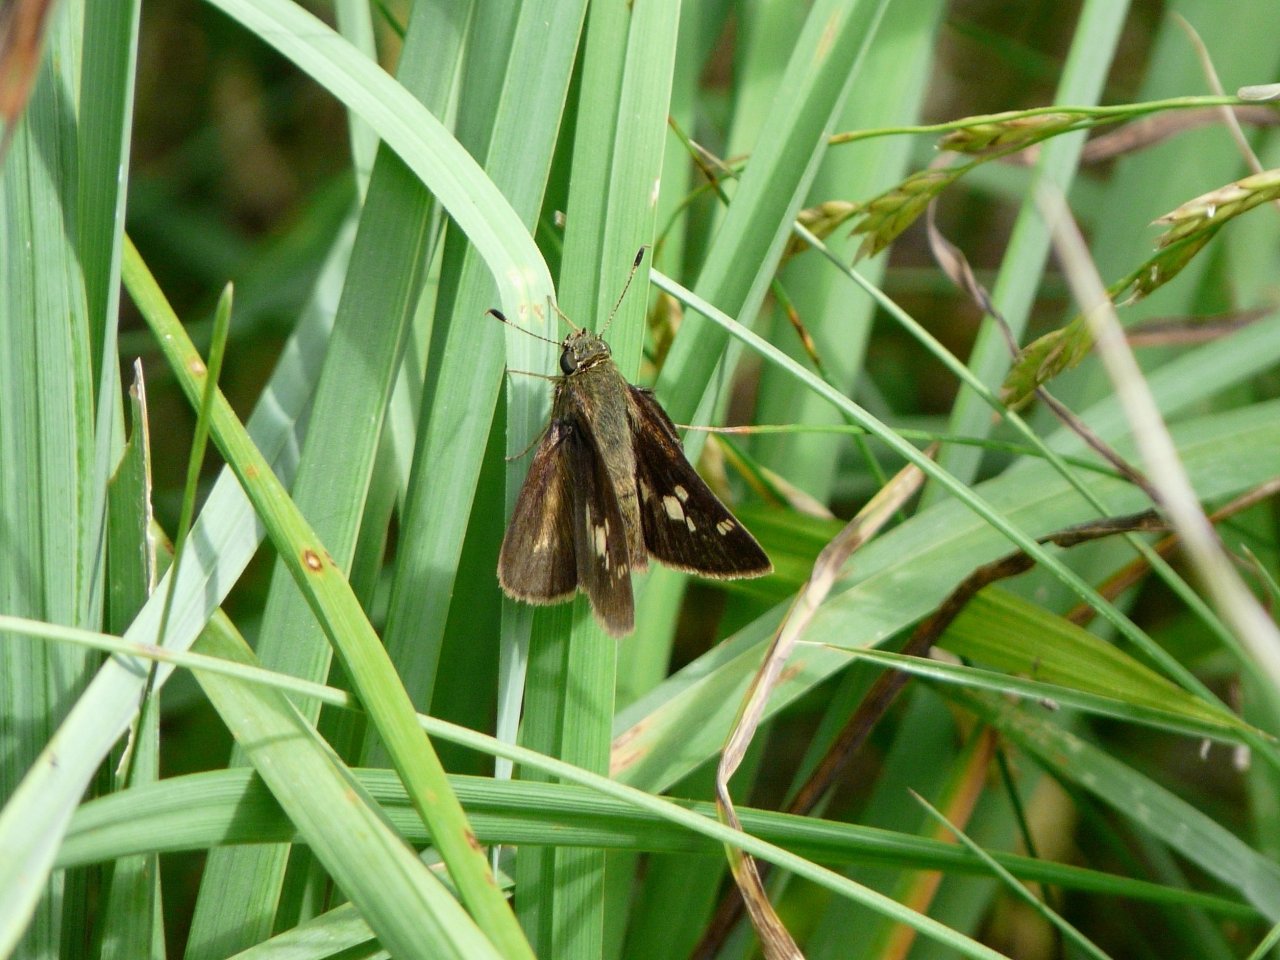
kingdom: Animalia
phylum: Arthropoda
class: Insecta
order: Lepidoptera
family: Hesperiidae
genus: Vernia
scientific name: Vernia verna
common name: Little Glassywing
